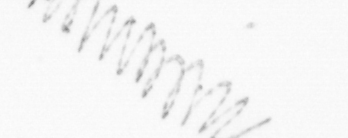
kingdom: Chromista
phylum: Ochrophyta
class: Bacillariophyceae
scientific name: Bacillariophyceae
